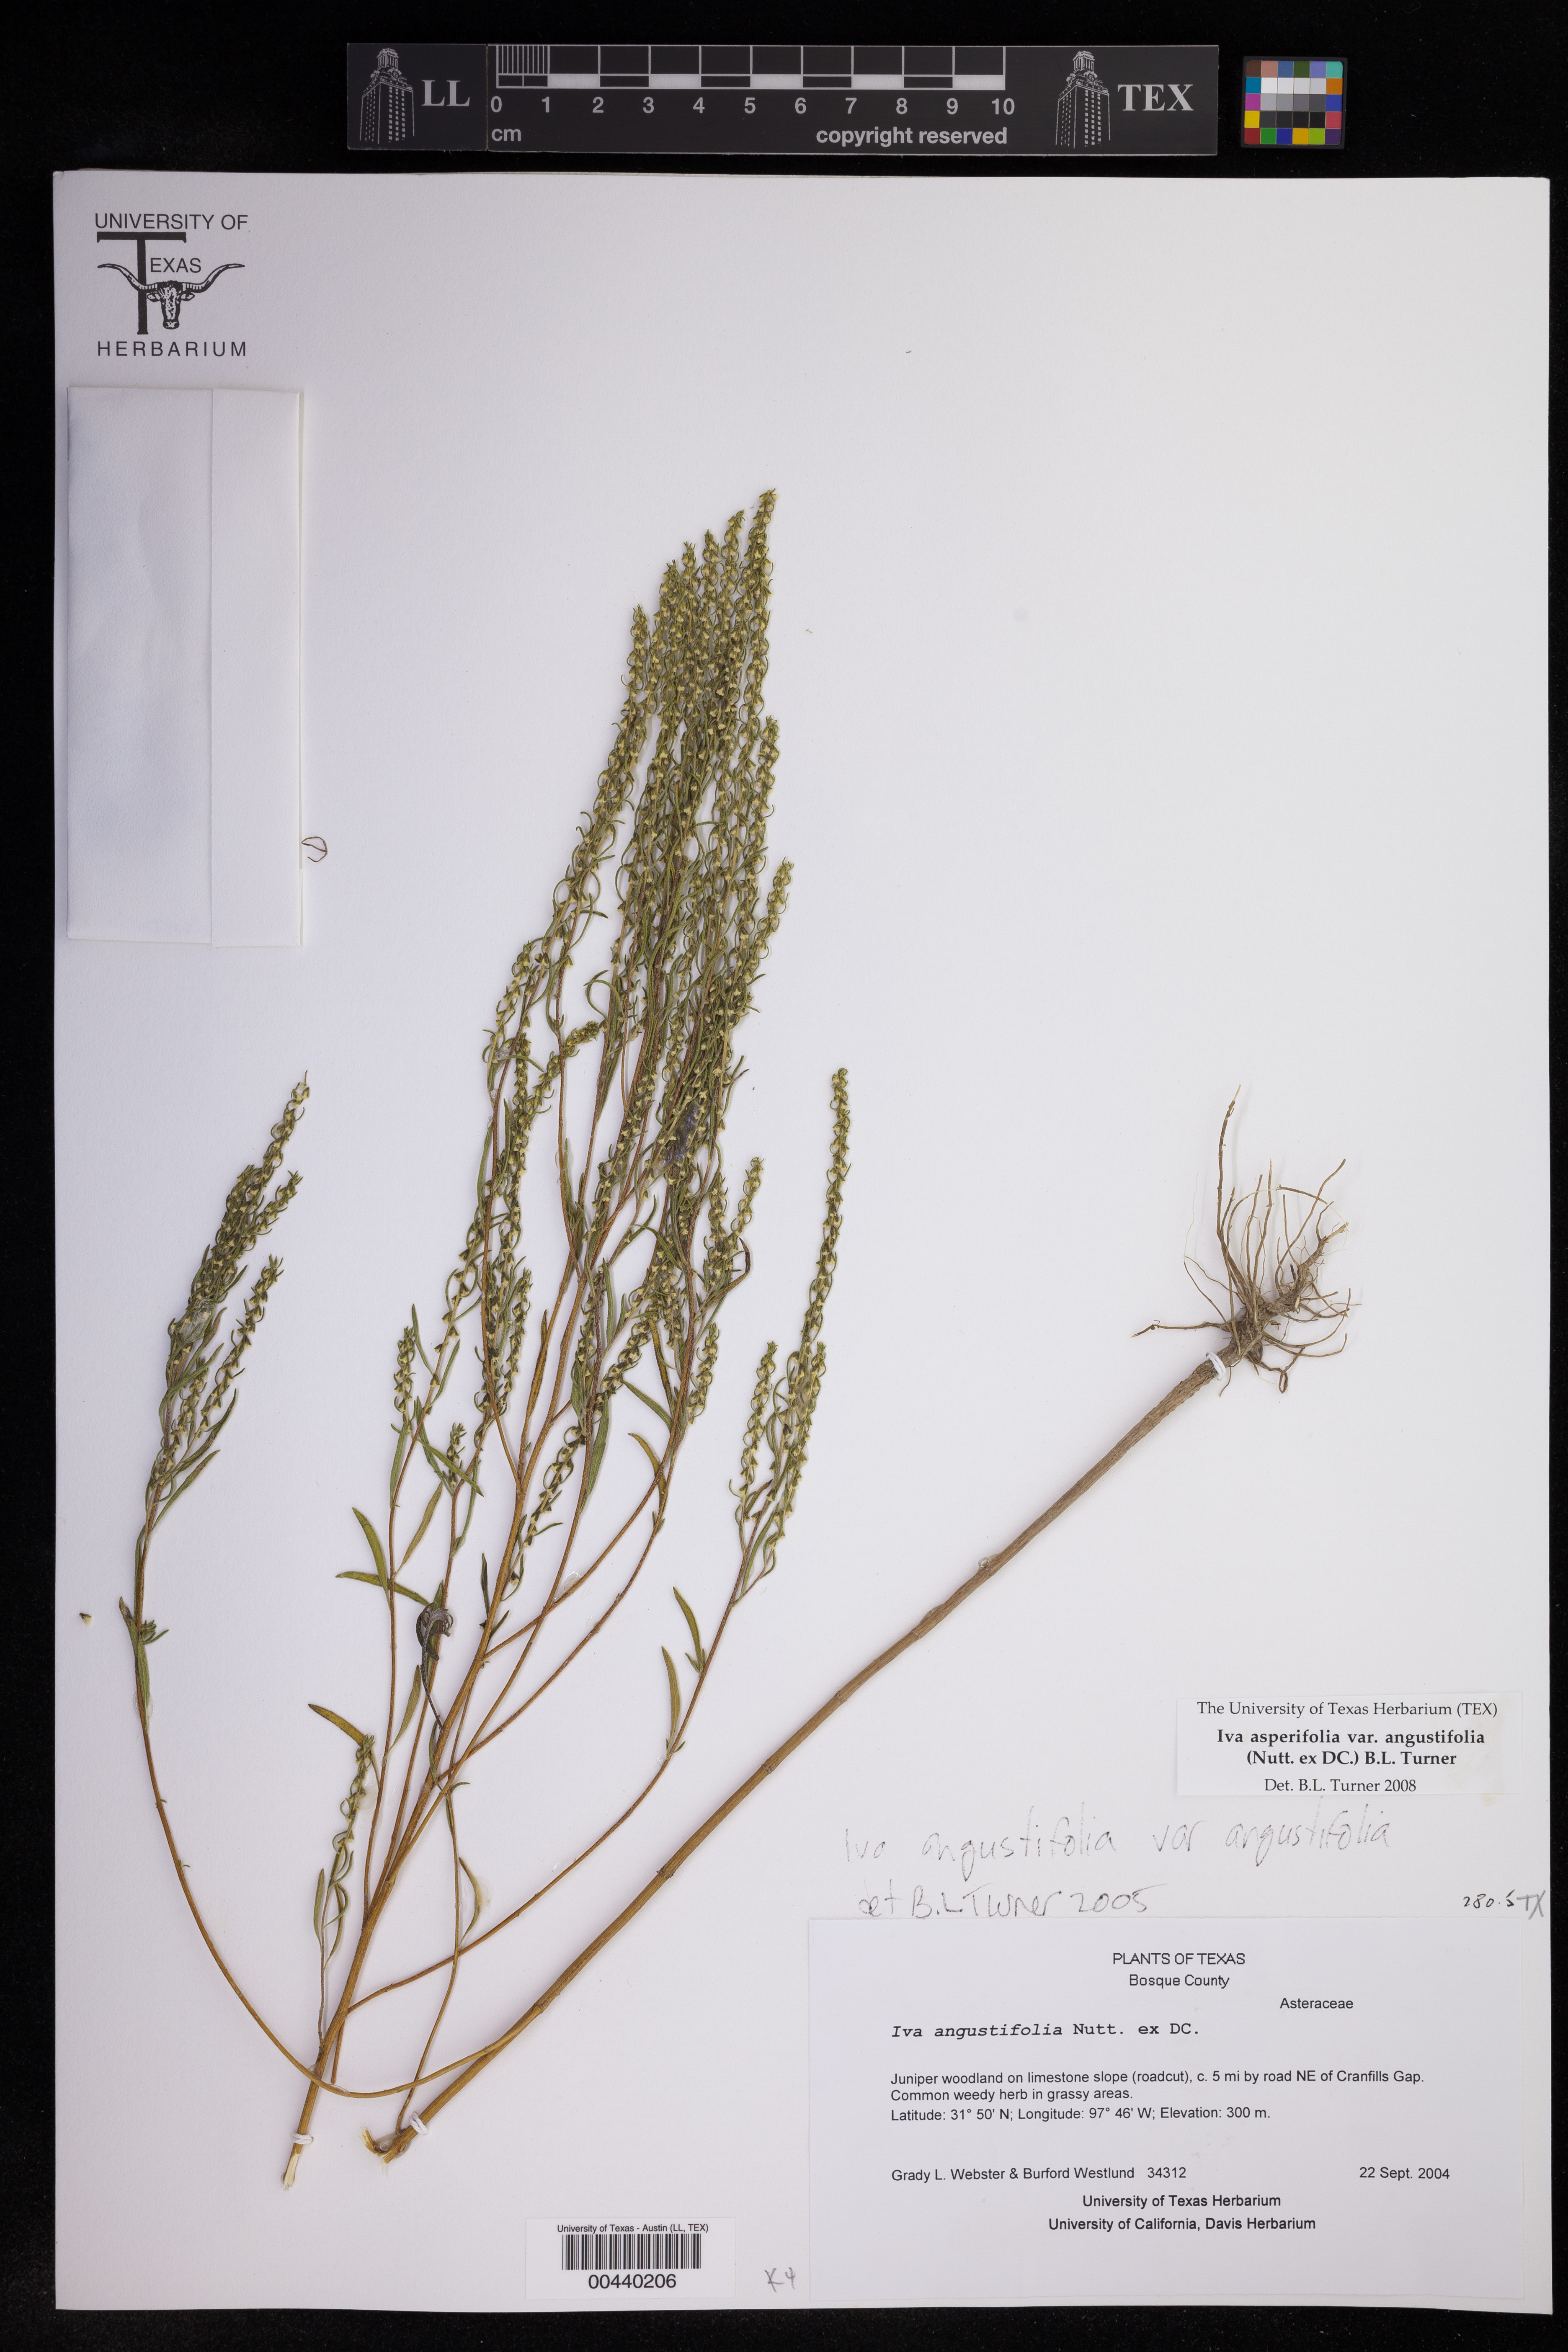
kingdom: Plantae
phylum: Tracheophyta
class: Magnoliopsida
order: Asterales
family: Asteraceae
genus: Iva
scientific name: Iva asperifolia
